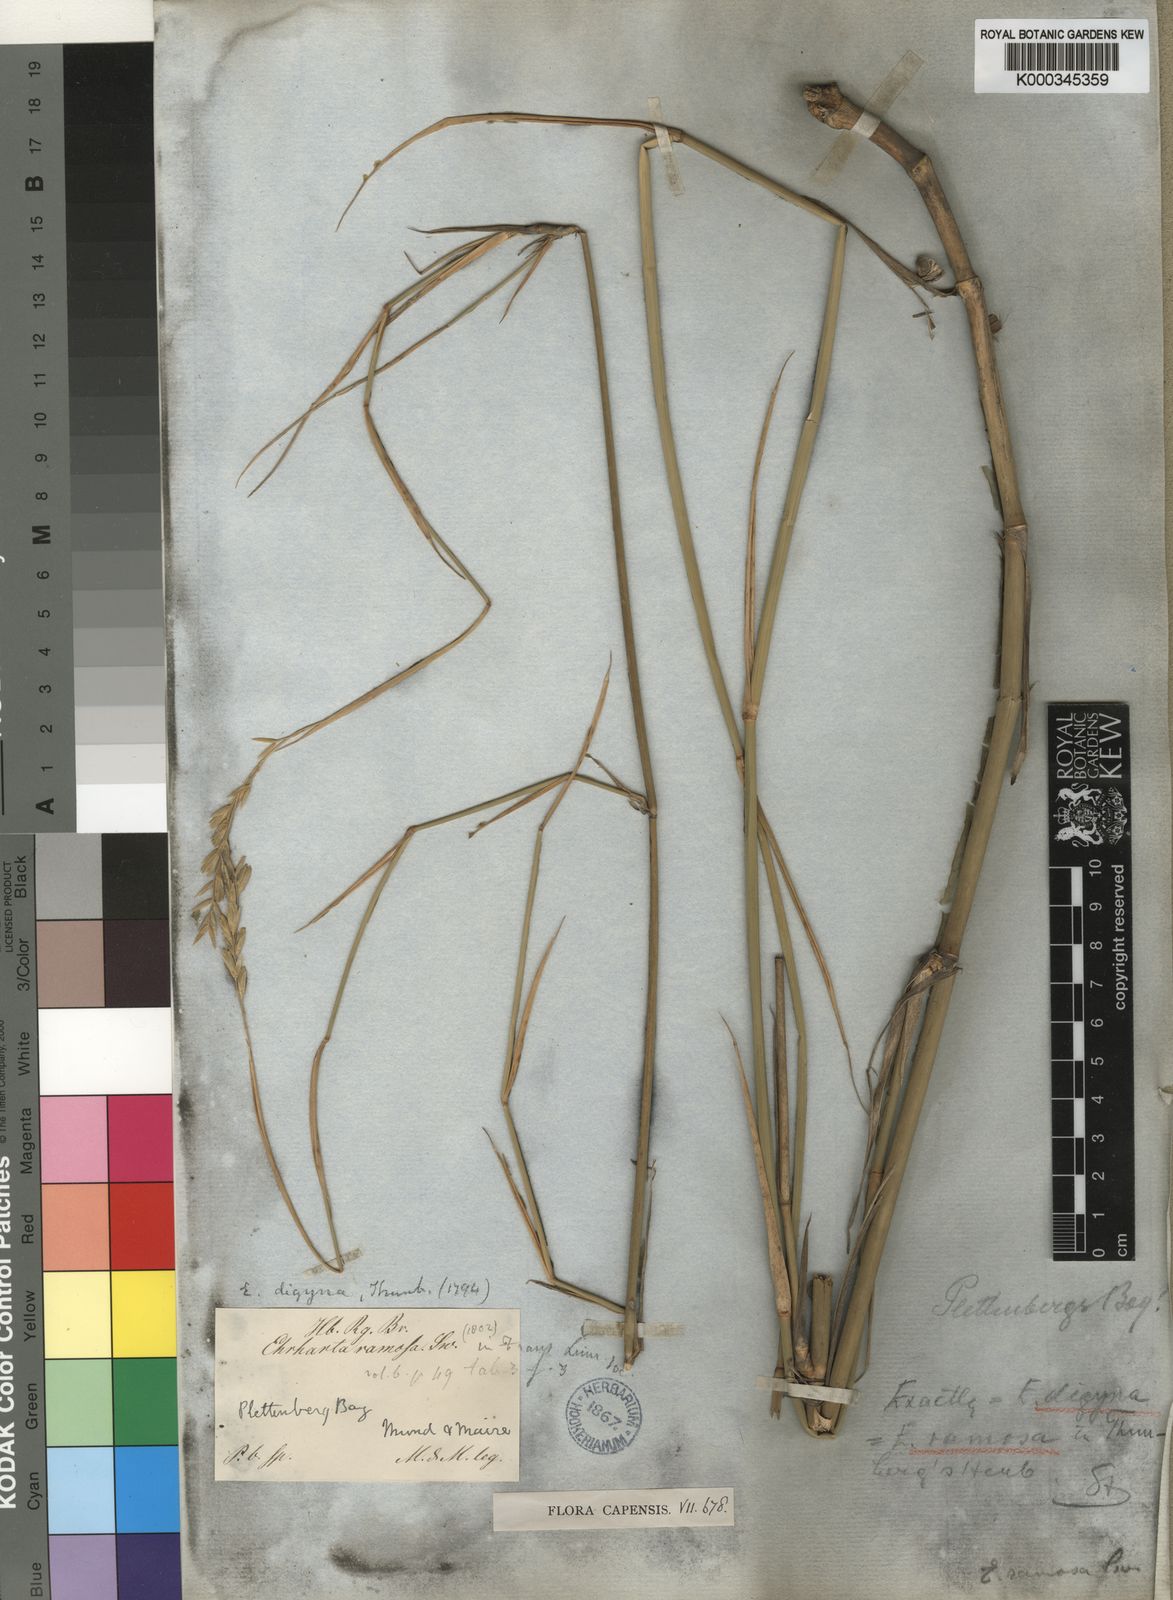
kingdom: Plantae
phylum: Tracheophyta
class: Liliopsida
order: Poales
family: Poaceae
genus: Ehrharta
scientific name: Ehrharta ramosa
